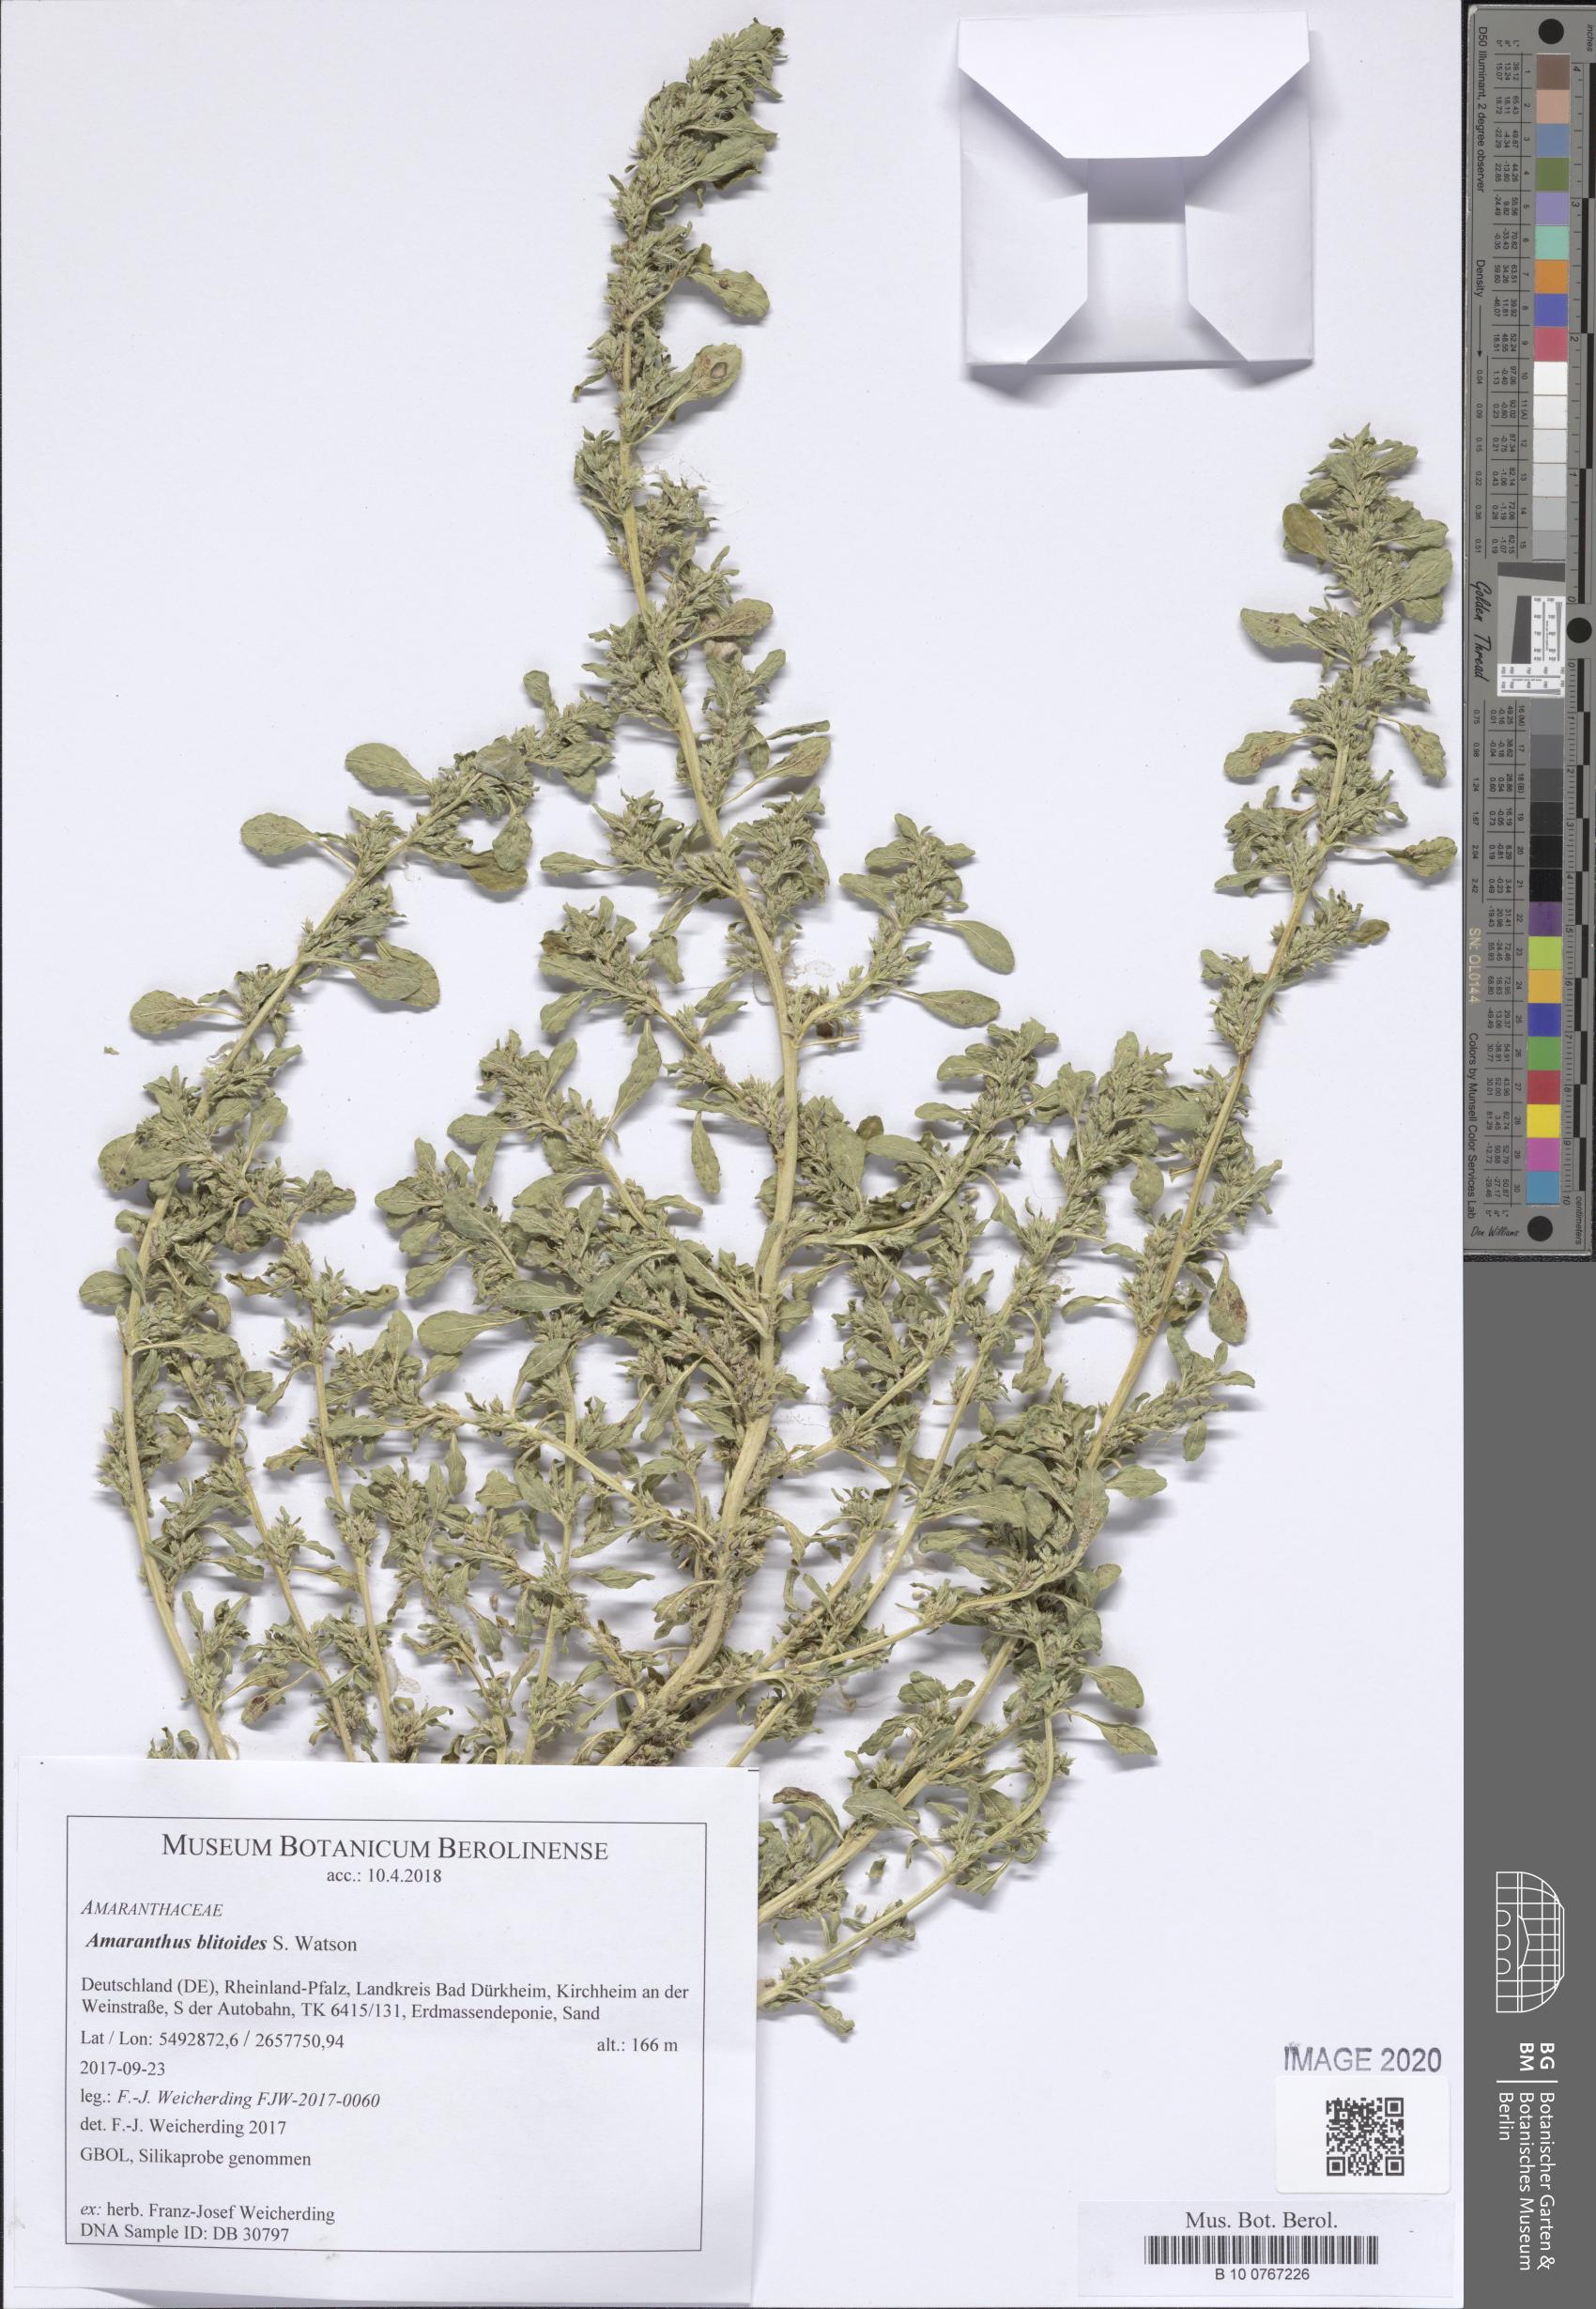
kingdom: Plantae
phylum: Tracheophyta
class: Magnoliopsida
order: Caryophyllales
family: Amaranthaceae
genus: Amaranthus
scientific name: Amaranthus blitoides
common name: Prostrate pigweed
